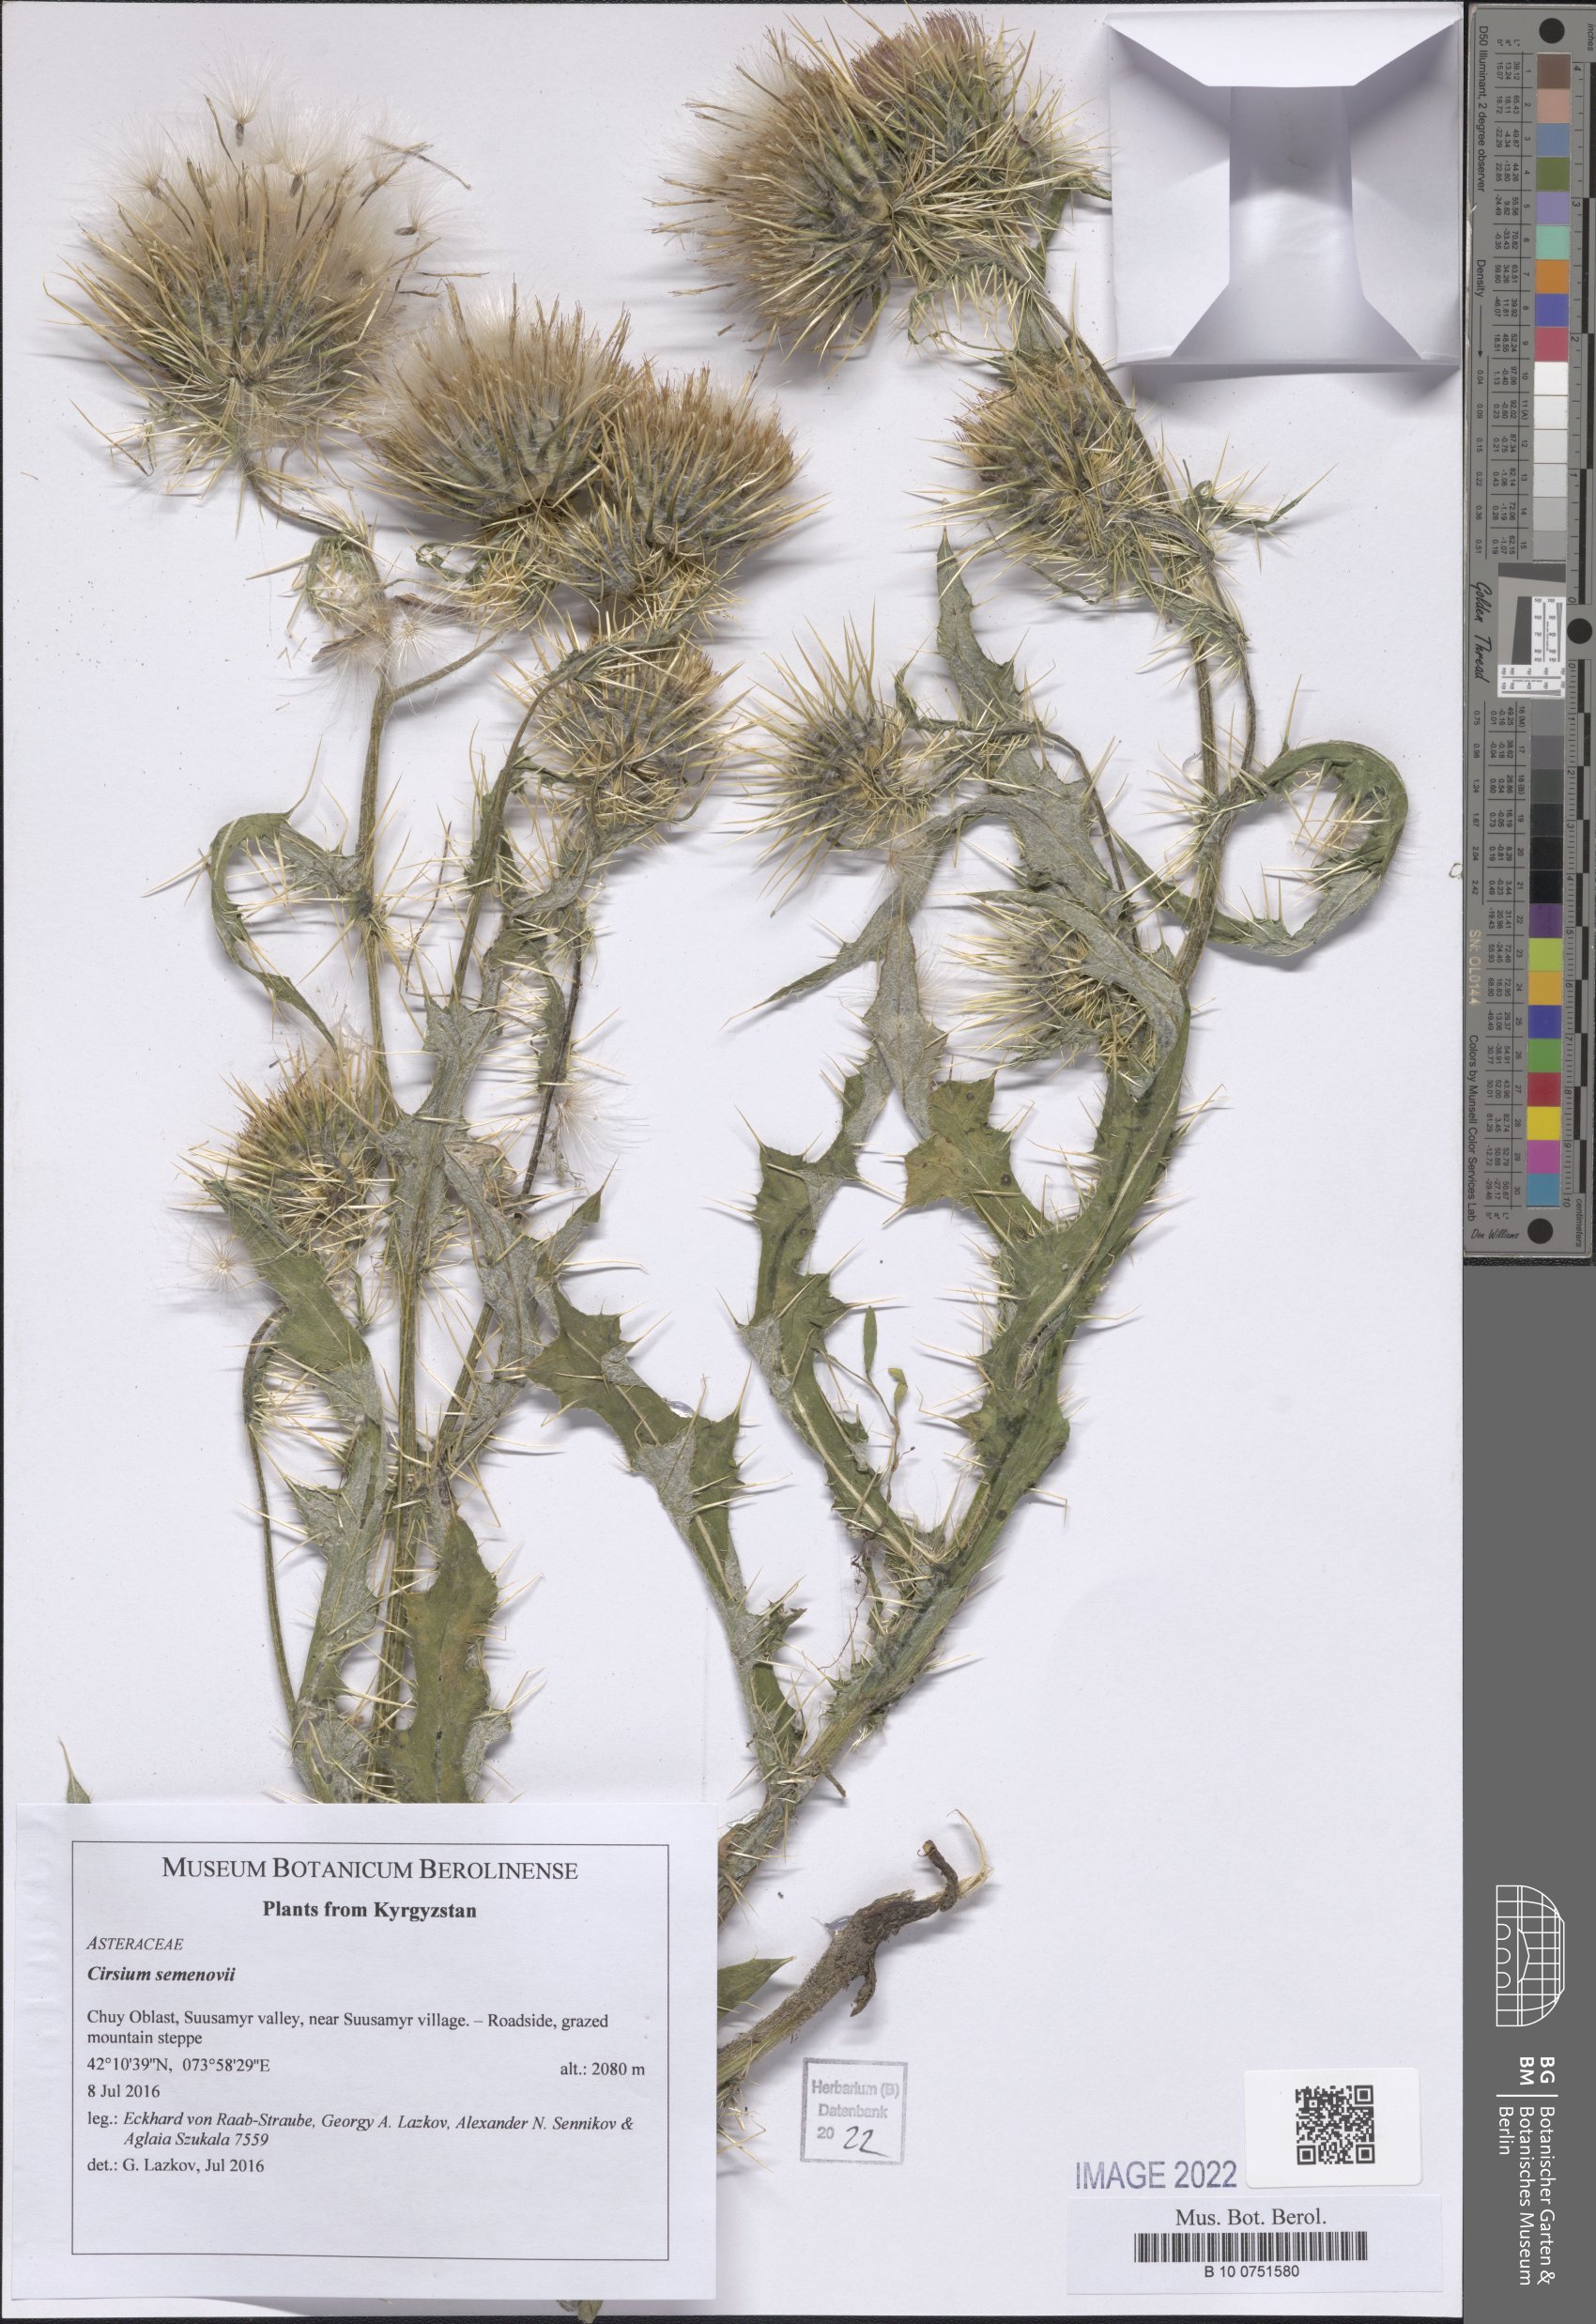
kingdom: Plantae
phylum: Tracheophyta
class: Magnoliopsida
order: Asterales
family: Asteraceae
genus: Cirsium
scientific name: Cirsium semenowii
